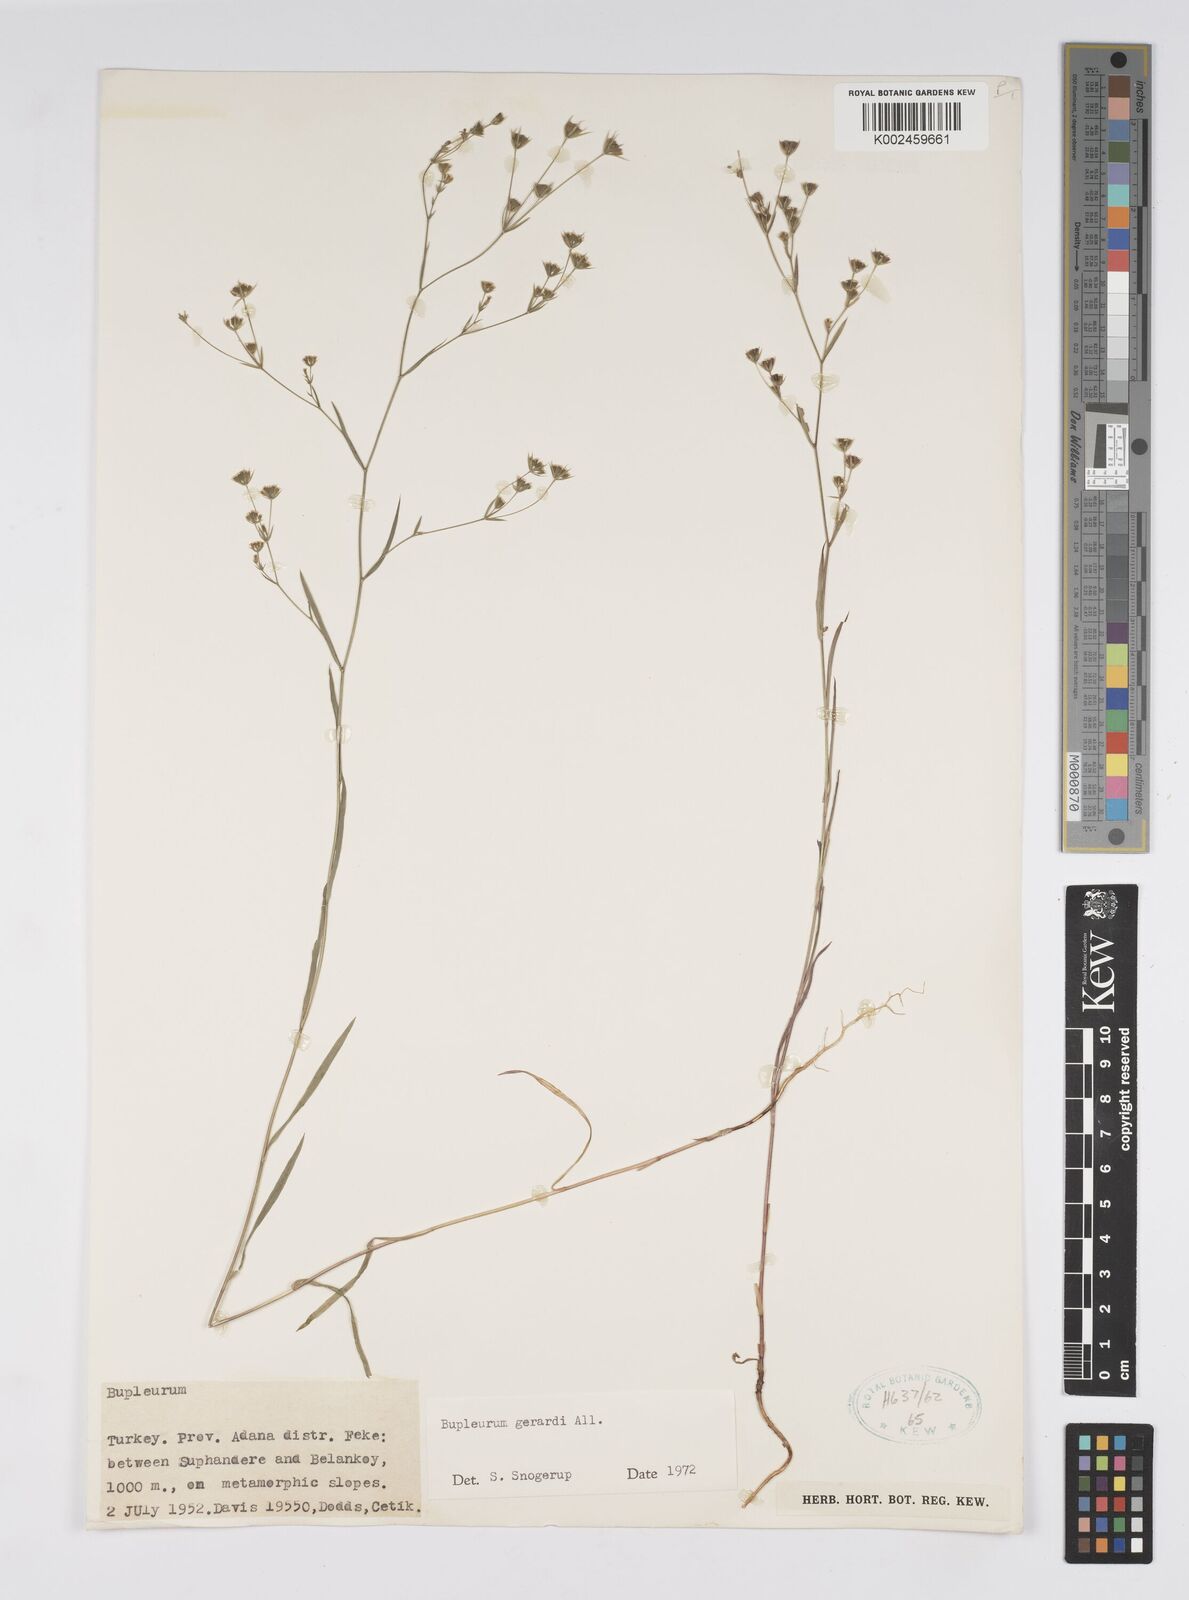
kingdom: Plantae
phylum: Tracheophyta
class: Magnoliopsida
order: Apiales
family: Apiaceae
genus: Bupleurum
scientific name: Bupleurum gerardi
